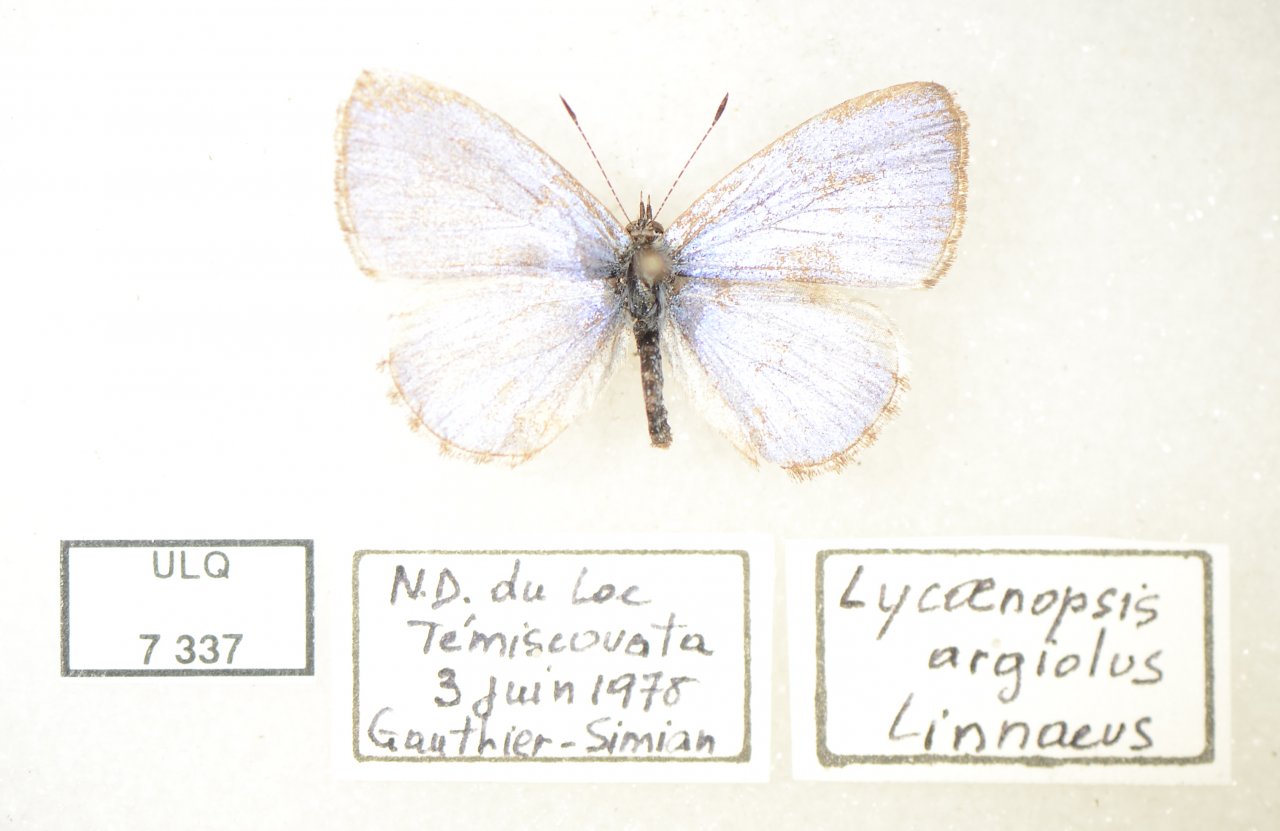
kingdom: Animalia
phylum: Arthropoda
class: Insecta
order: Lepidoptera
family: Lycaenidae
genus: Celastrina
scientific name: Celastrina lucia
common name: Northern Spring Azure
